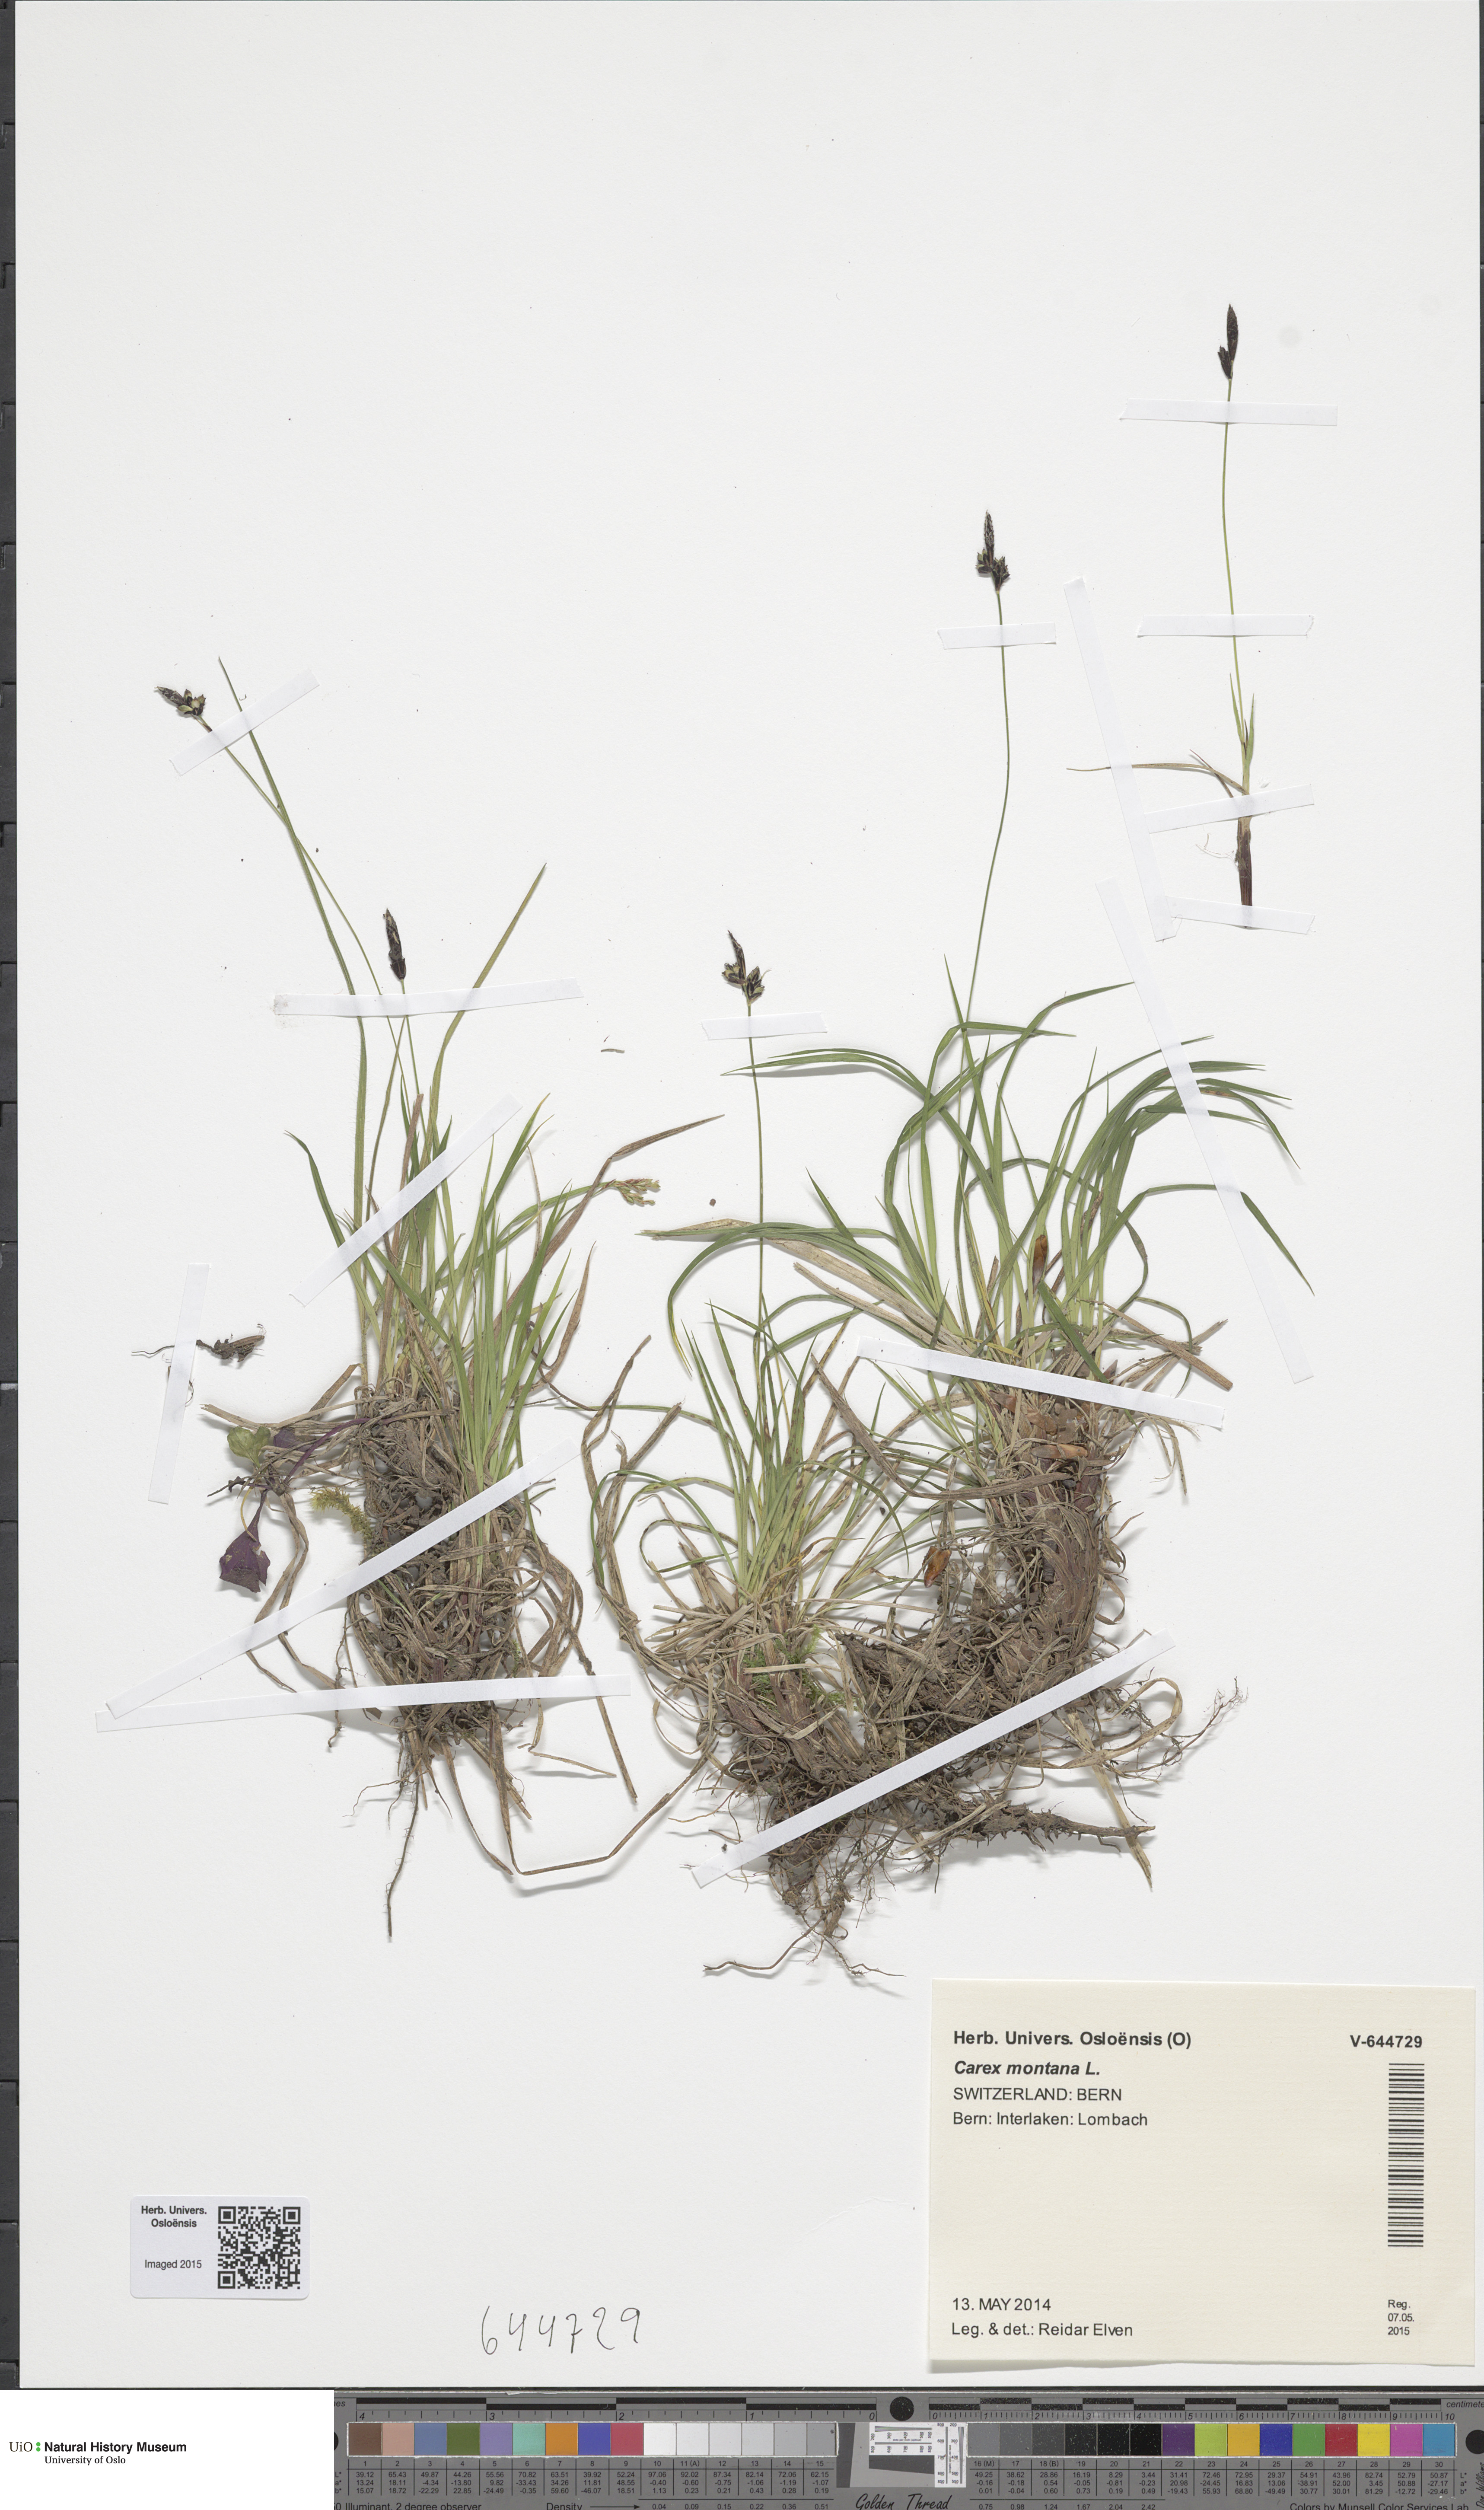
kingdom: Plantae
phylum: Tracheophyta
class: Liliopsida
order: Poales
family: Cyperaceae
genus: Carex
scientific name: Carex montana
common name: Soft-leaved sedge
